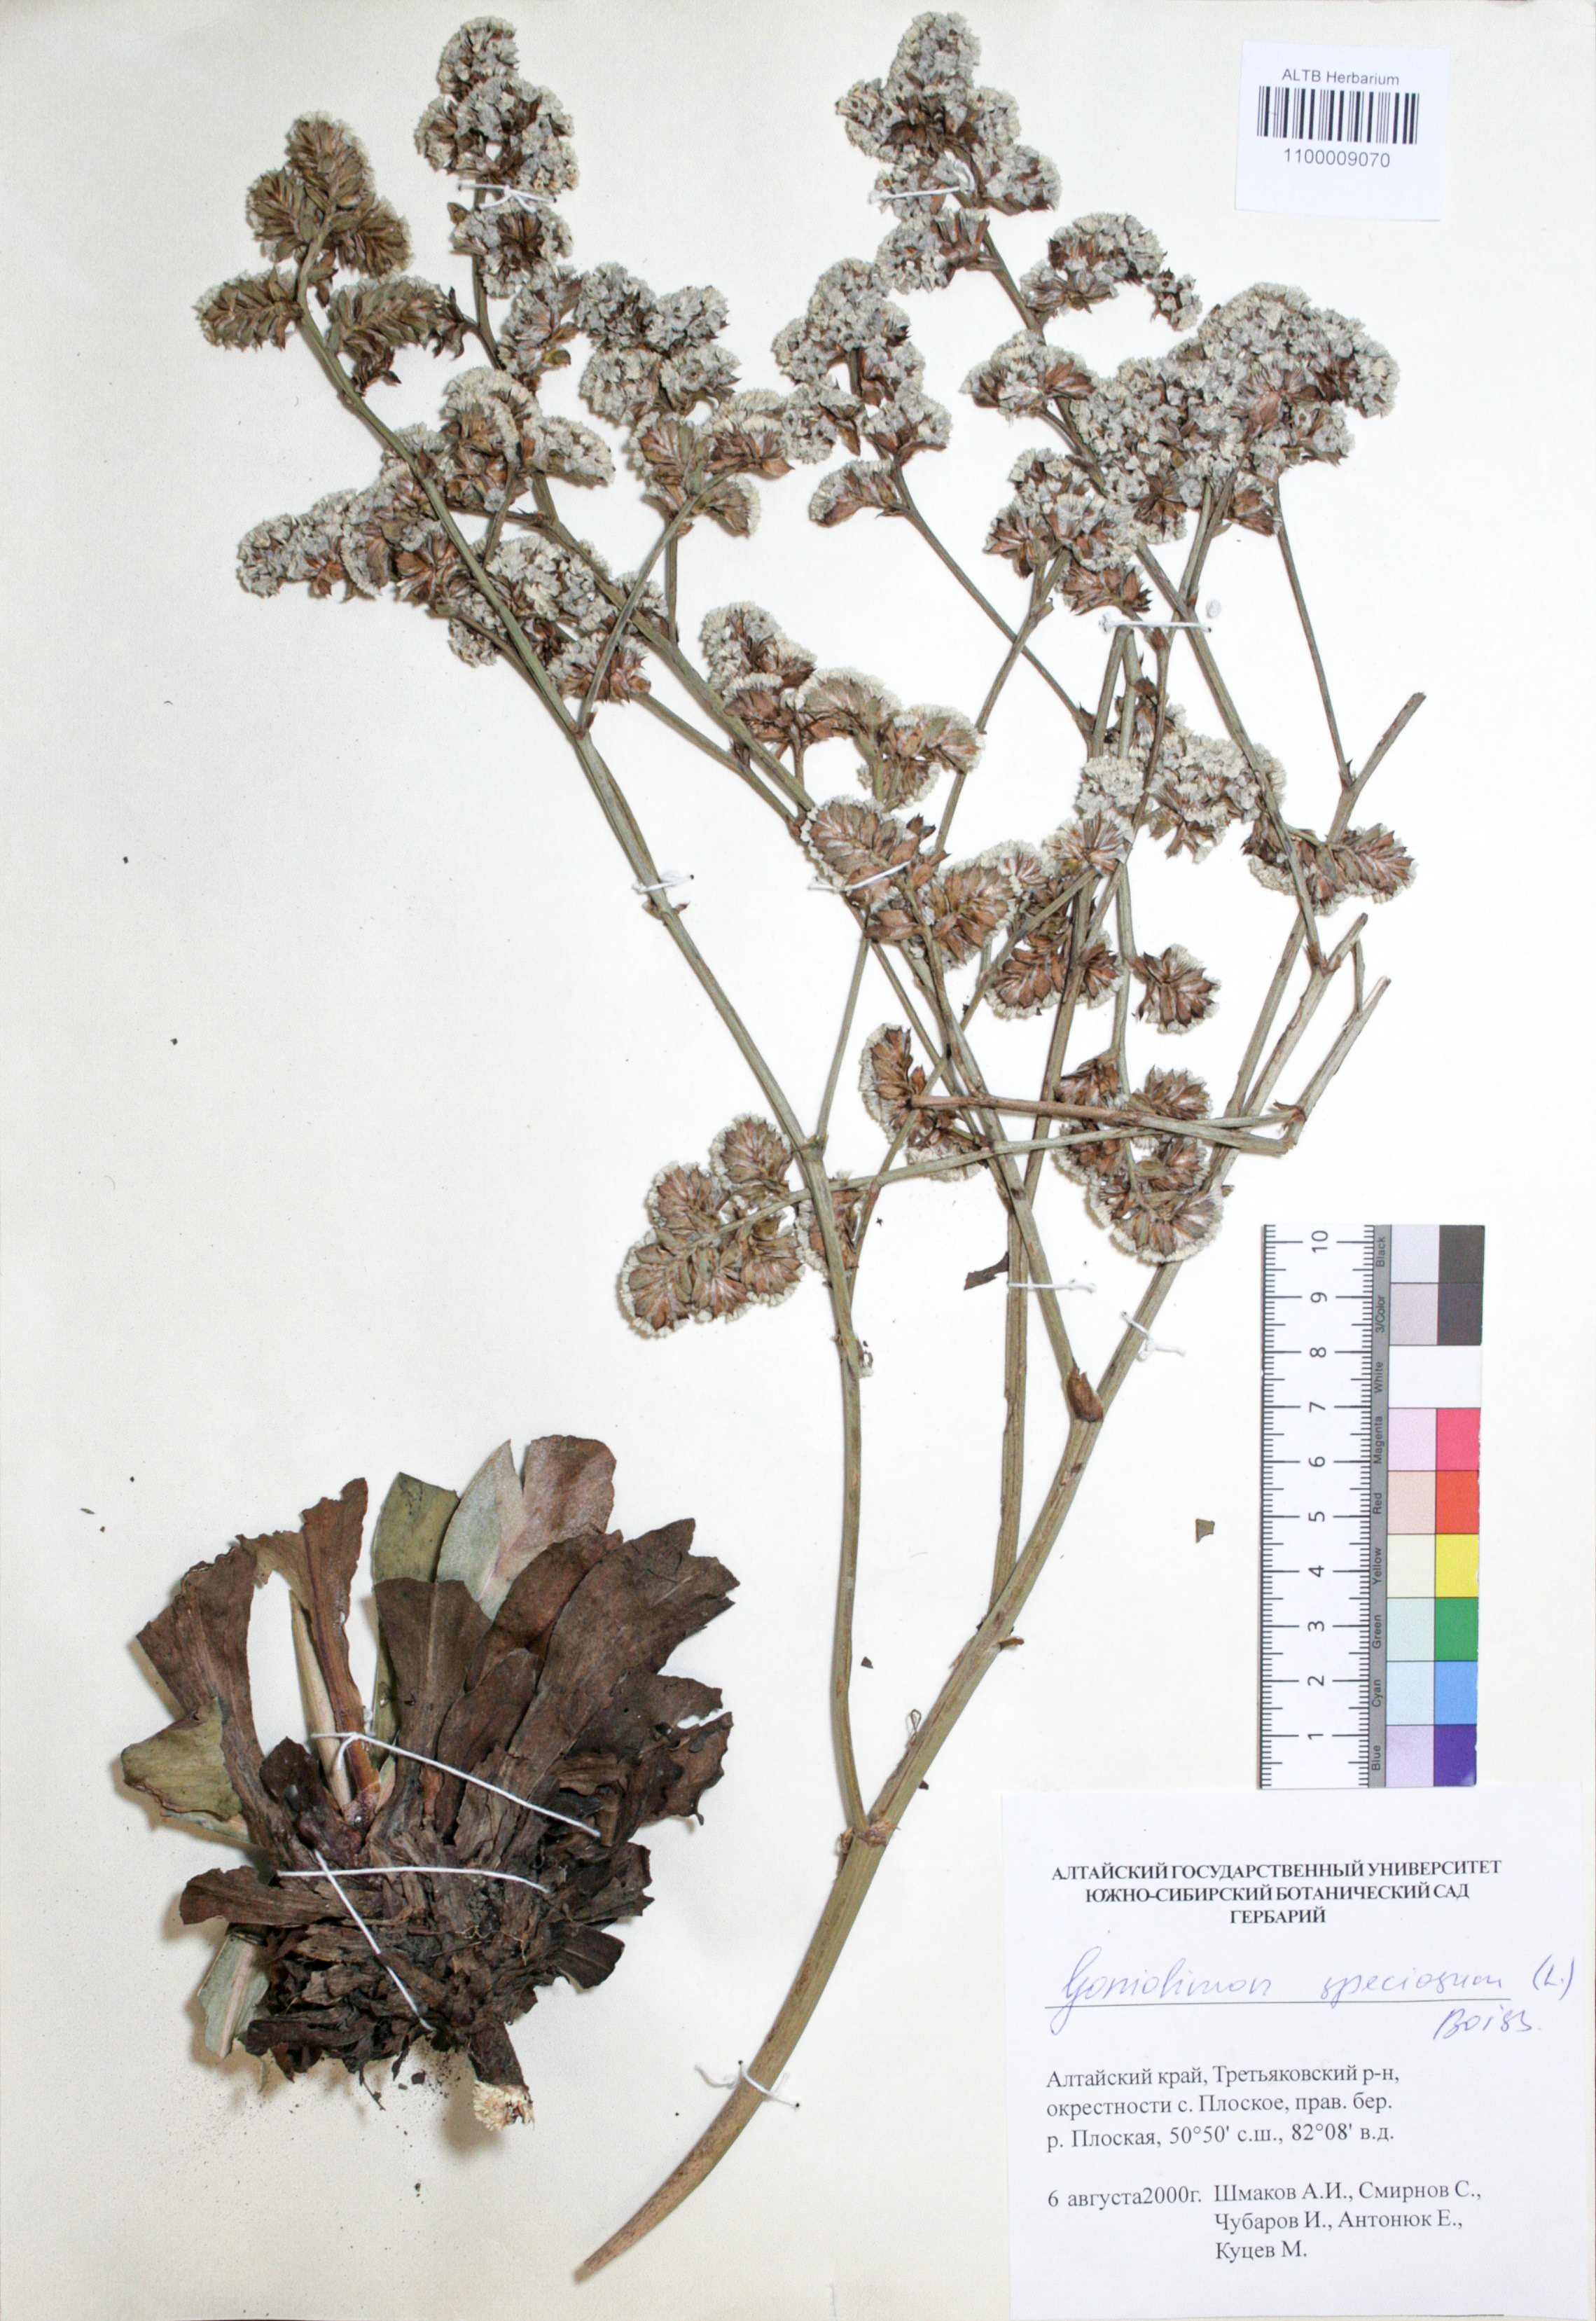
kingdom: Plantae
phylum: Tracheophyta
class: Magnoliopsida
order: Caryophyllales
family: Plumbaginaceae
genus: Goniolimon
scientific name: Goniolimon speciosum
